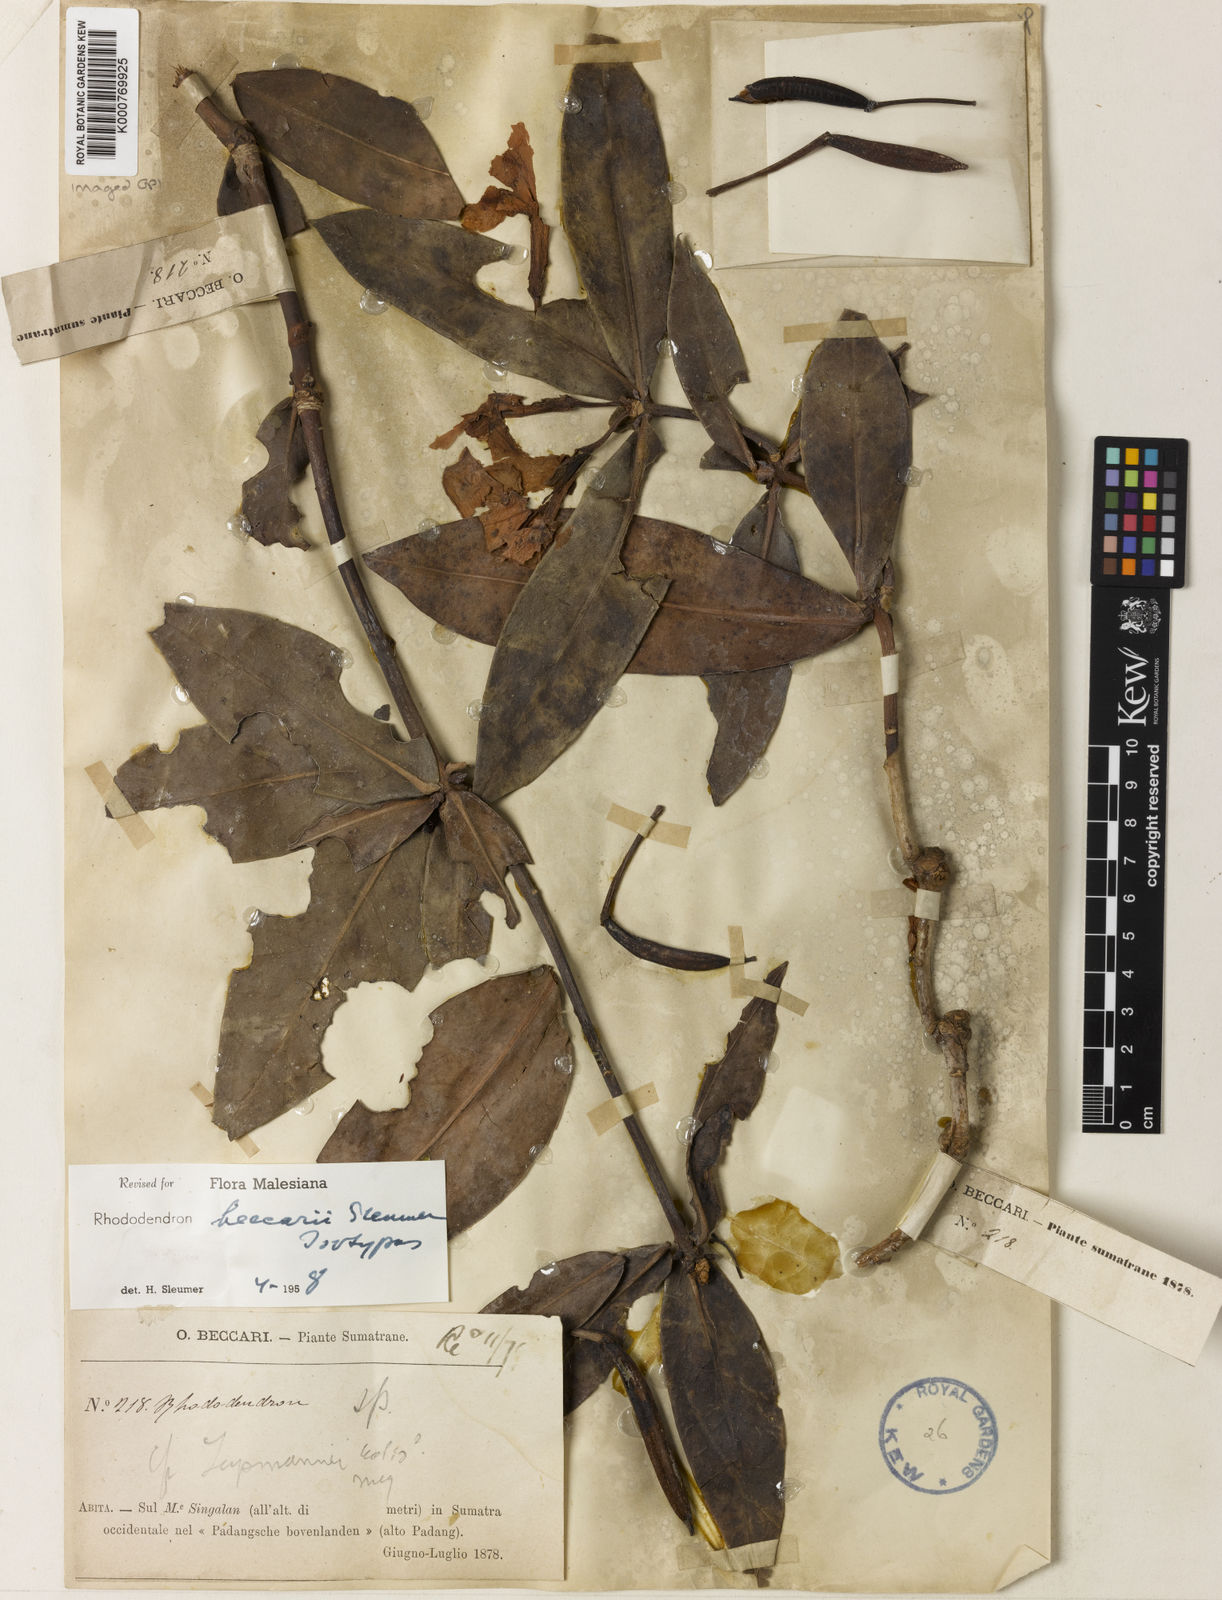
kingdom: Plantae
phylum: Tracheophyta
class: Magnoliopsida
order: Ericales
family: Ericaceae
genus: Rhododendron
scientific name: Rhododendron beccarii
